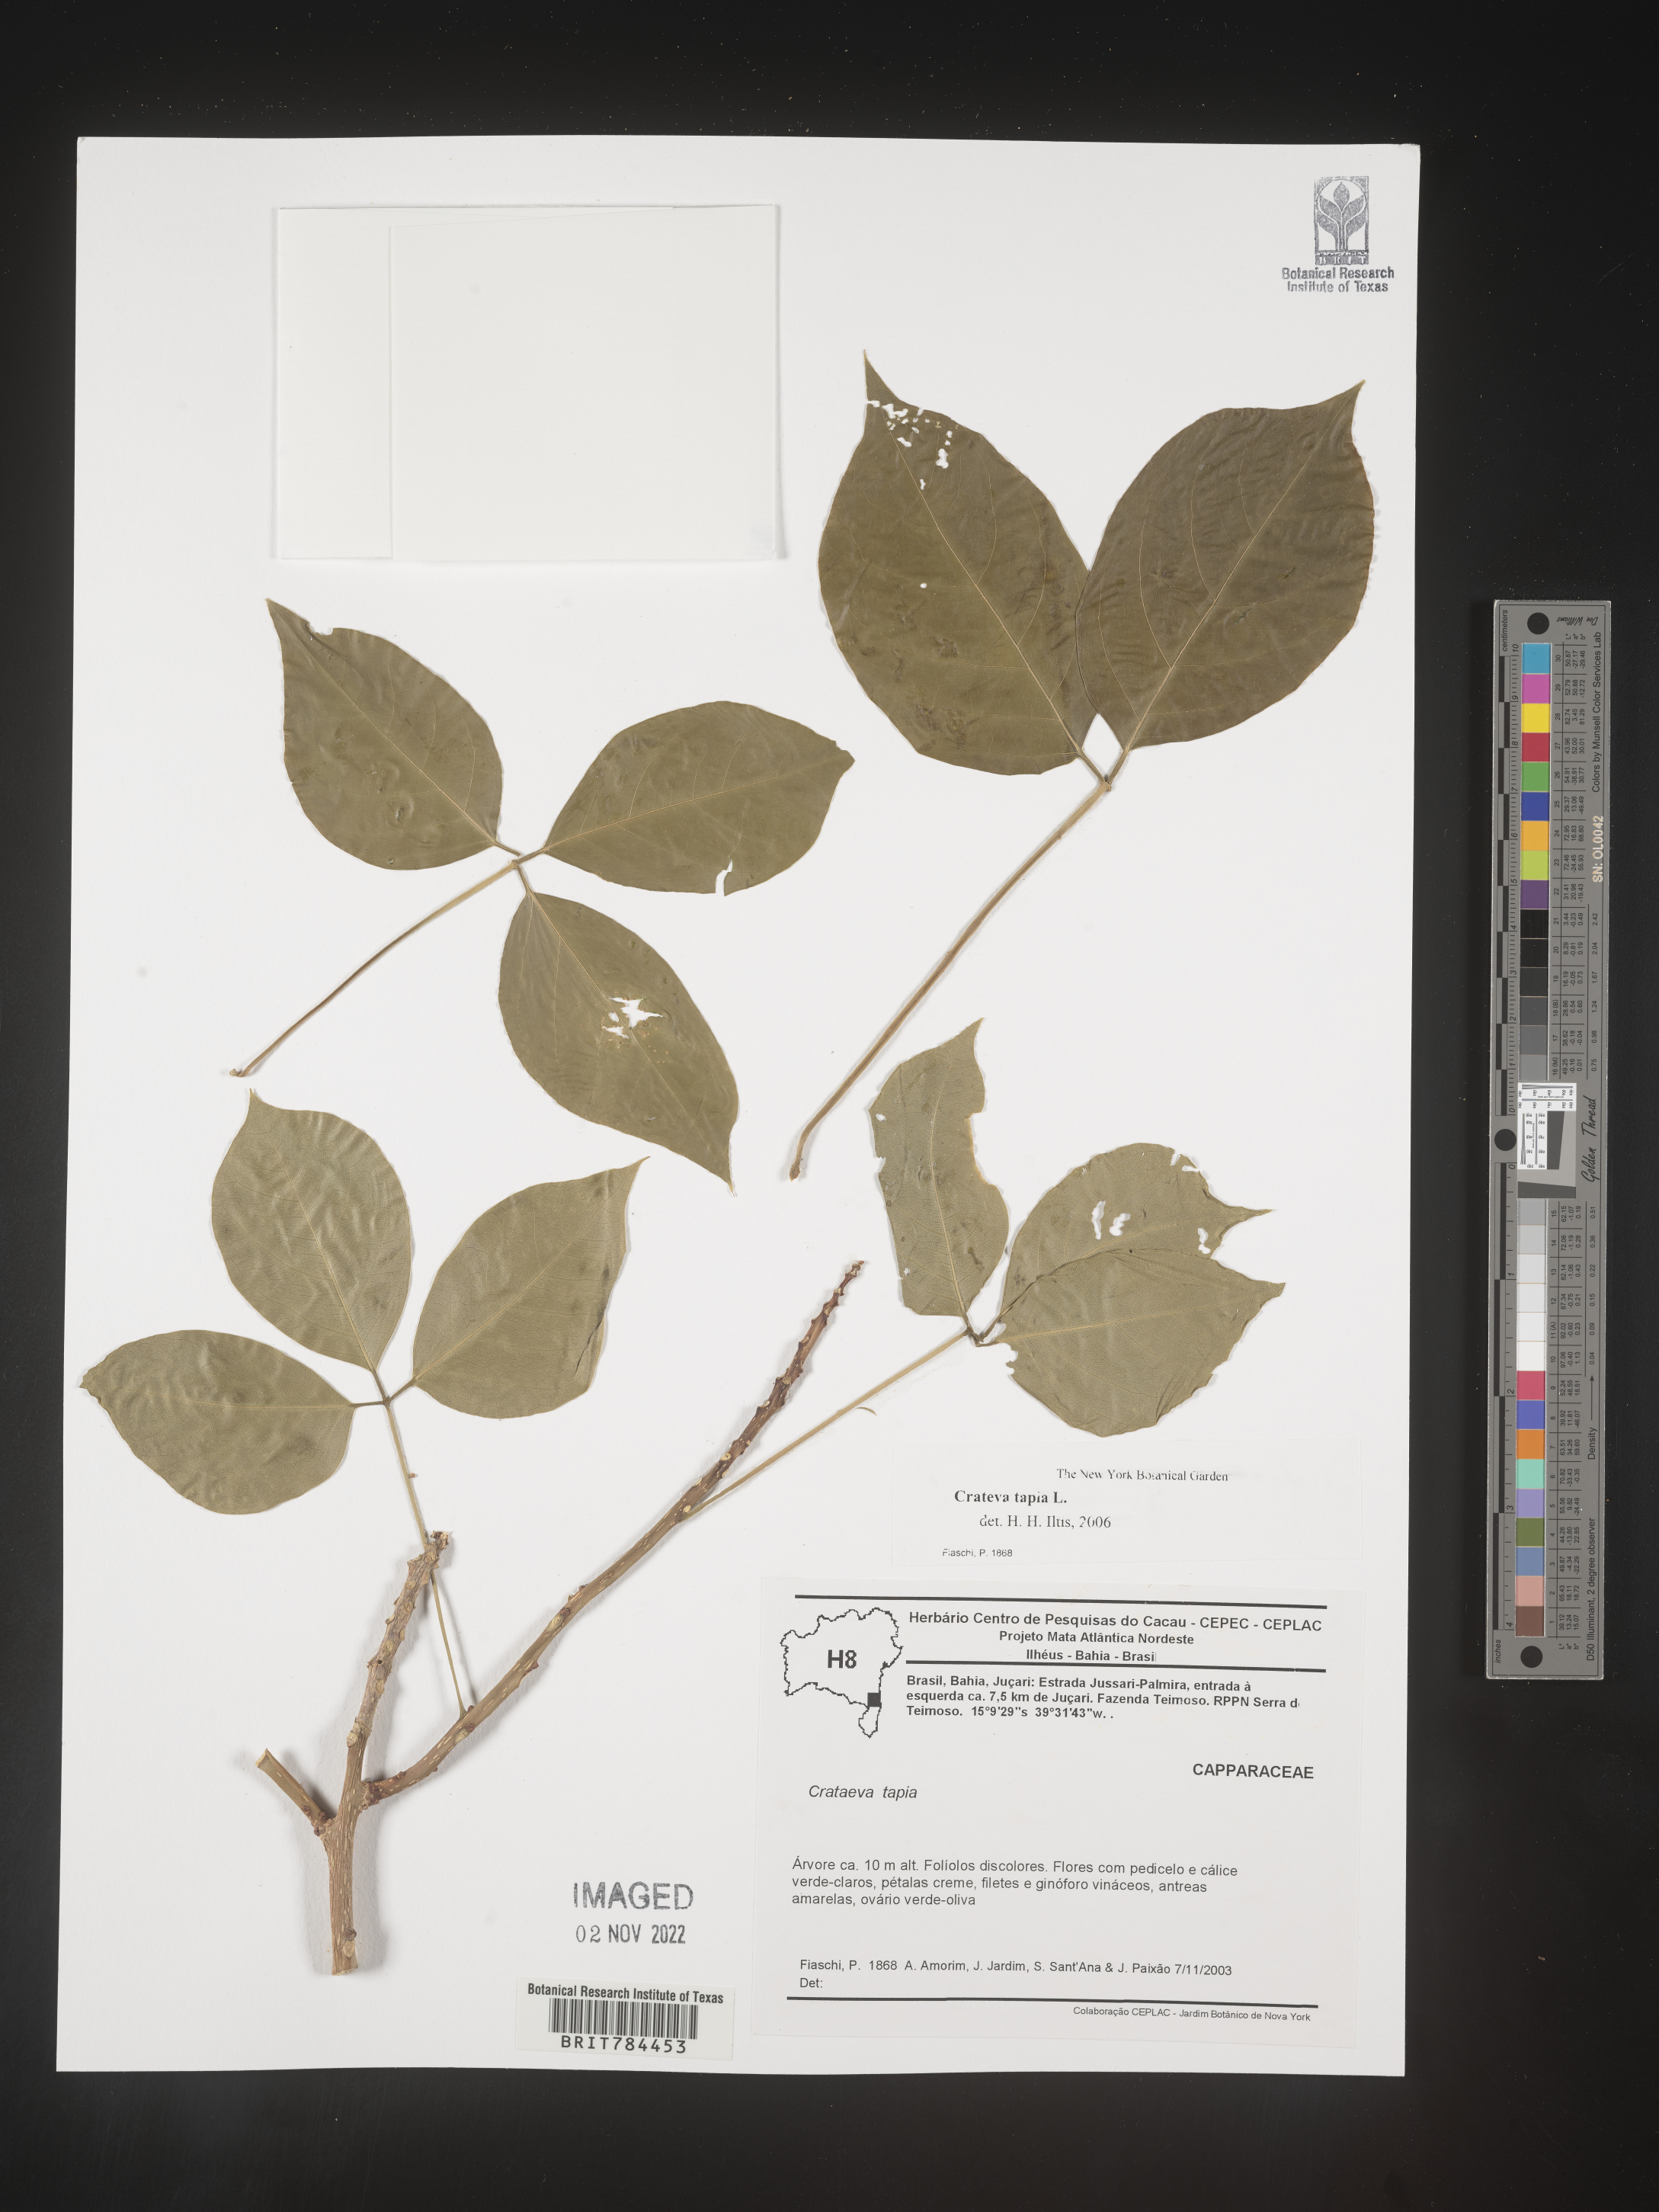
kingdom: Plantae
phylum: Tracheophyta
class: Magnoliopsida
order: Brassicales
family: Capparaceae
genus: Crateva
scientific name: Crateva
